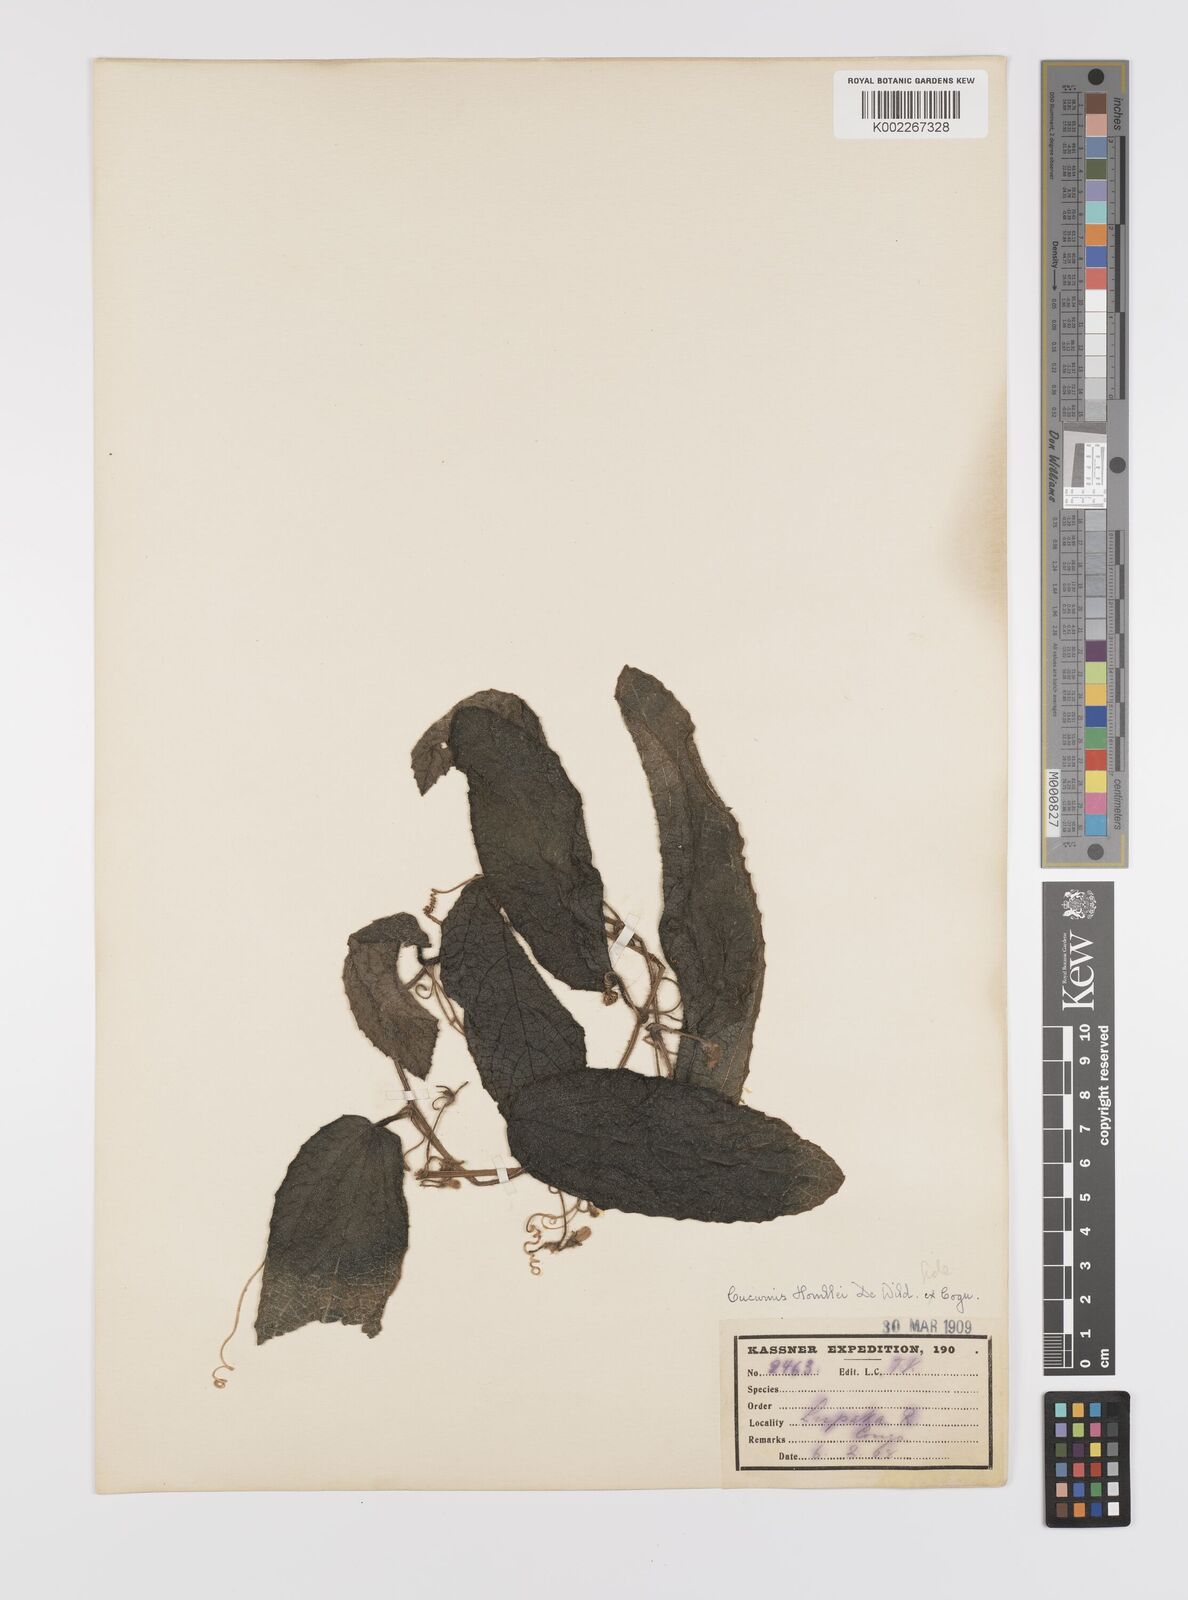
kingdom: Plantae
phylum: Tracheophyta
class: Magnoliopsida
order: Cucurbitales
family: Cucurbitaceae
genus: Cucumis
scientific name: Cucumis hirsutus
